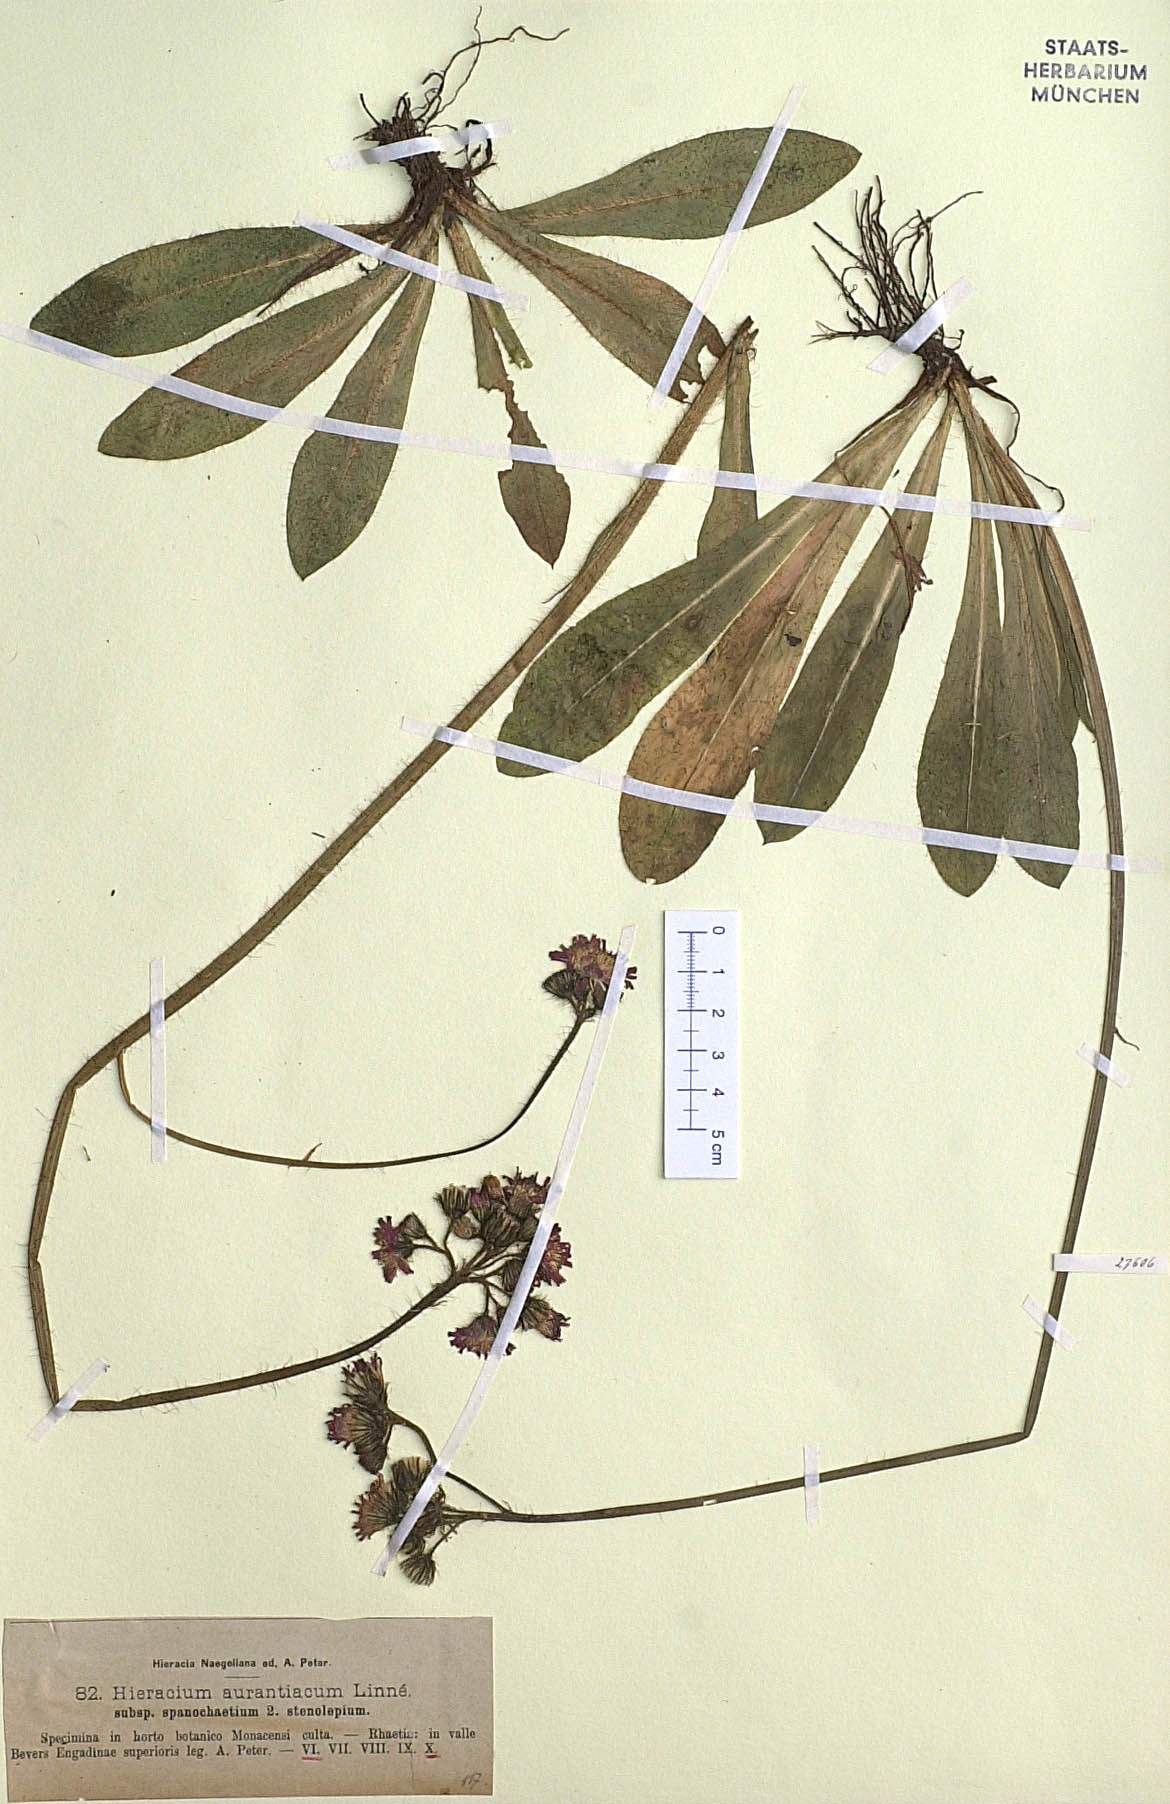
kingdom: Plantae
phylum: Tracheophyta
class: Magnoliopsida
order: Asterales
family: Asteraceae
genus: Pilosella
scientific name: Pilosella aurantiaca
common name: Fox-and-cubs
